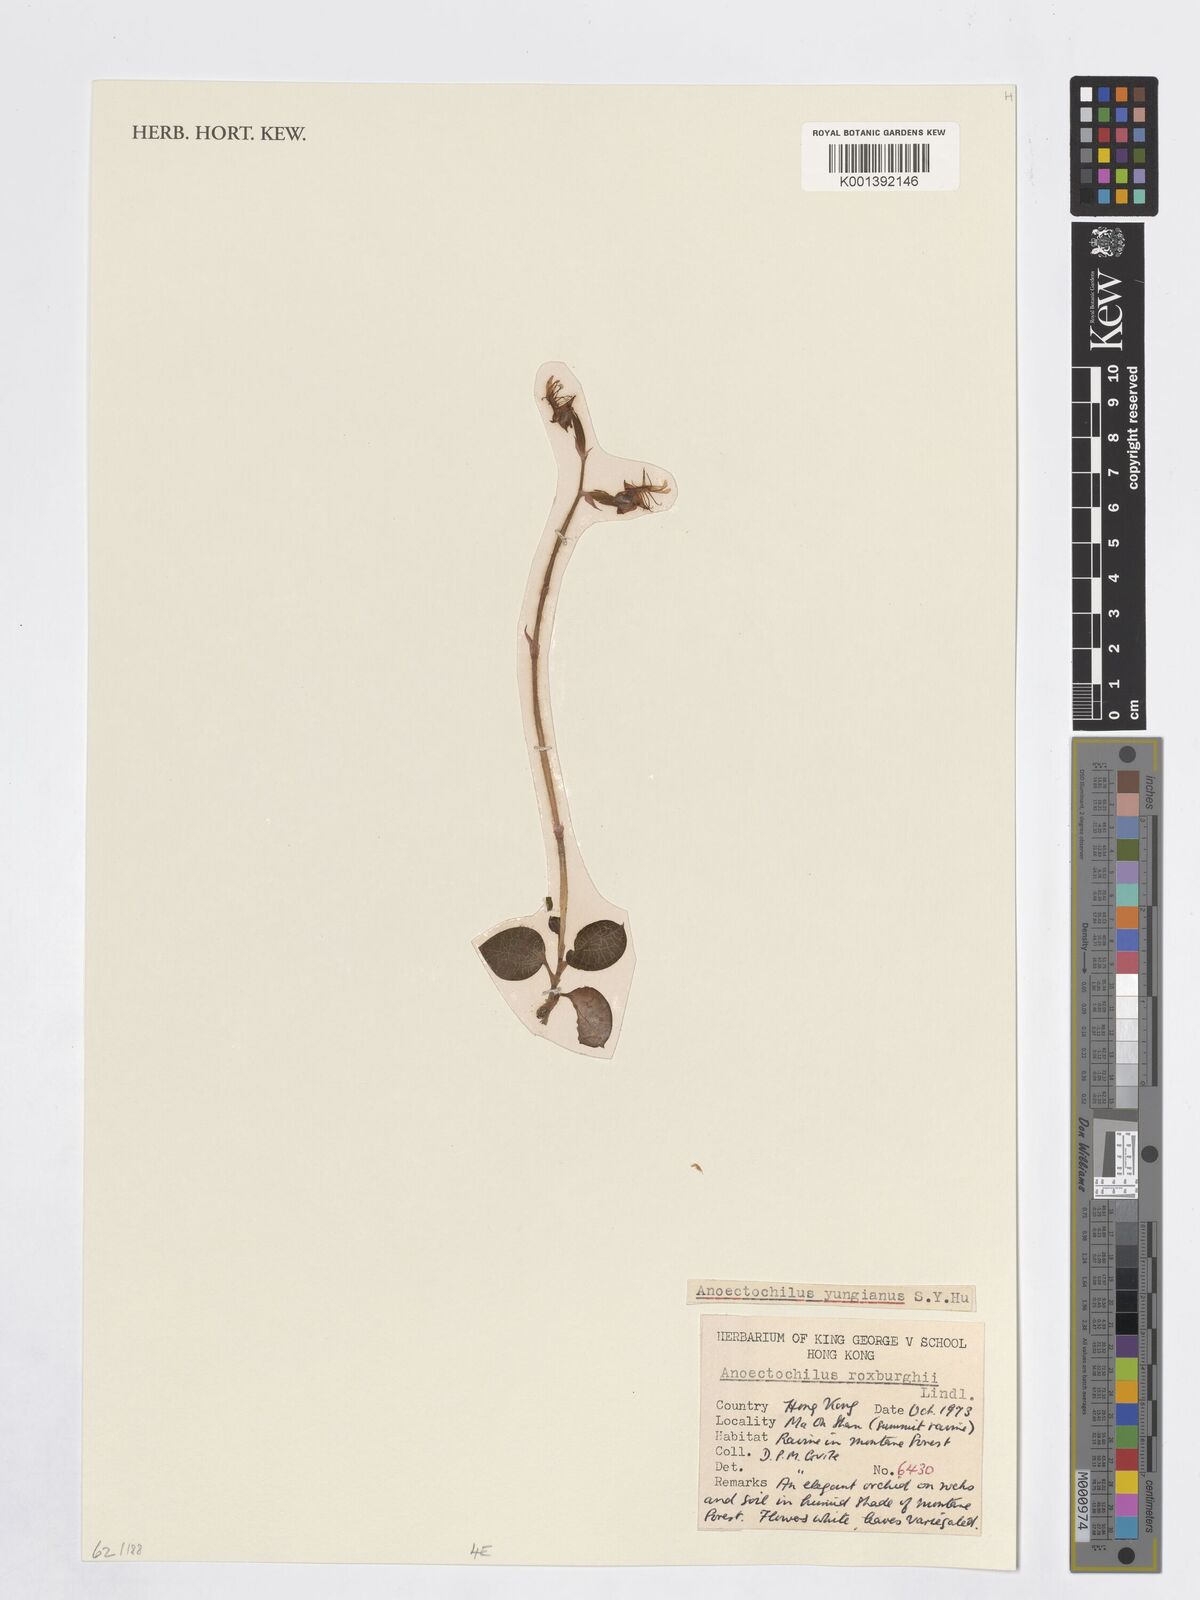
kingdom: Plantae
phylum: Tracheophyta
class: Liliopsida
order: Asparagales
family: Orchidaceae
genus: Anoectochilus
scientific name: Anoectochilus roxburghii
